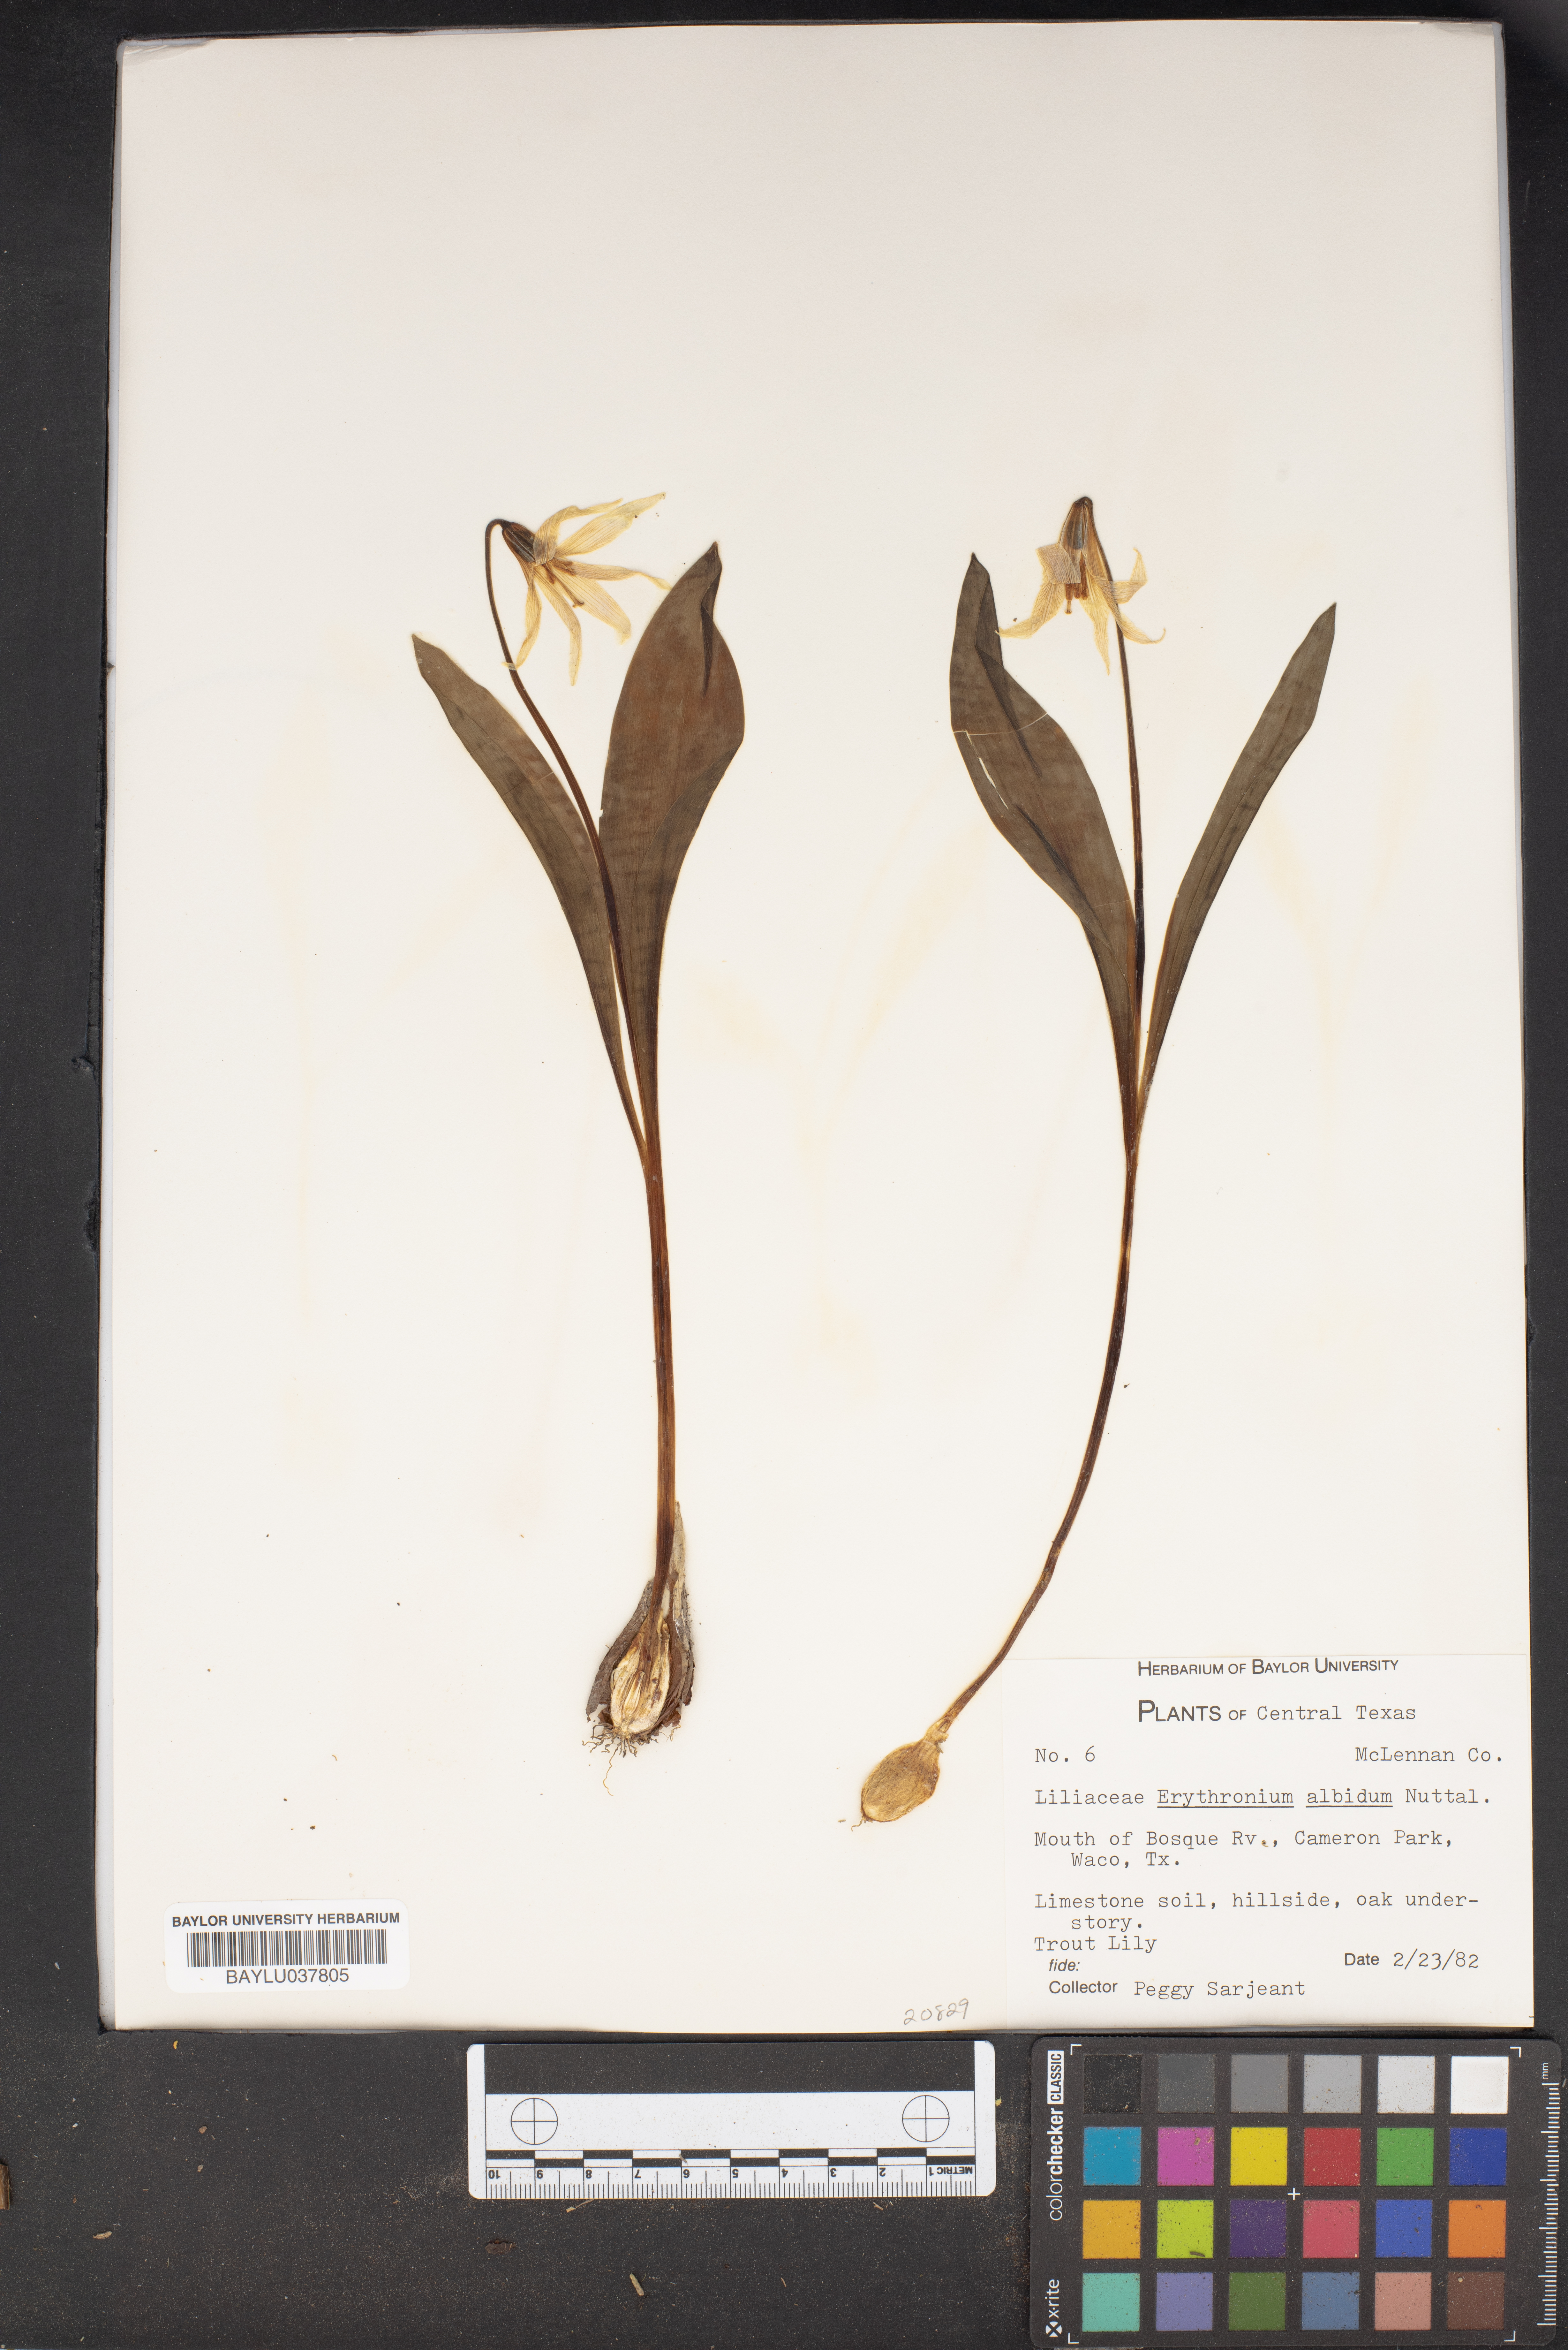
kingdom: Plantae
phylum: Tracheophyta
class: Liliopsida
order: Liliales
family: Liliaceae
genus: Erythronium
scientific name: Erythronium albidum
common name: White trout-lily
